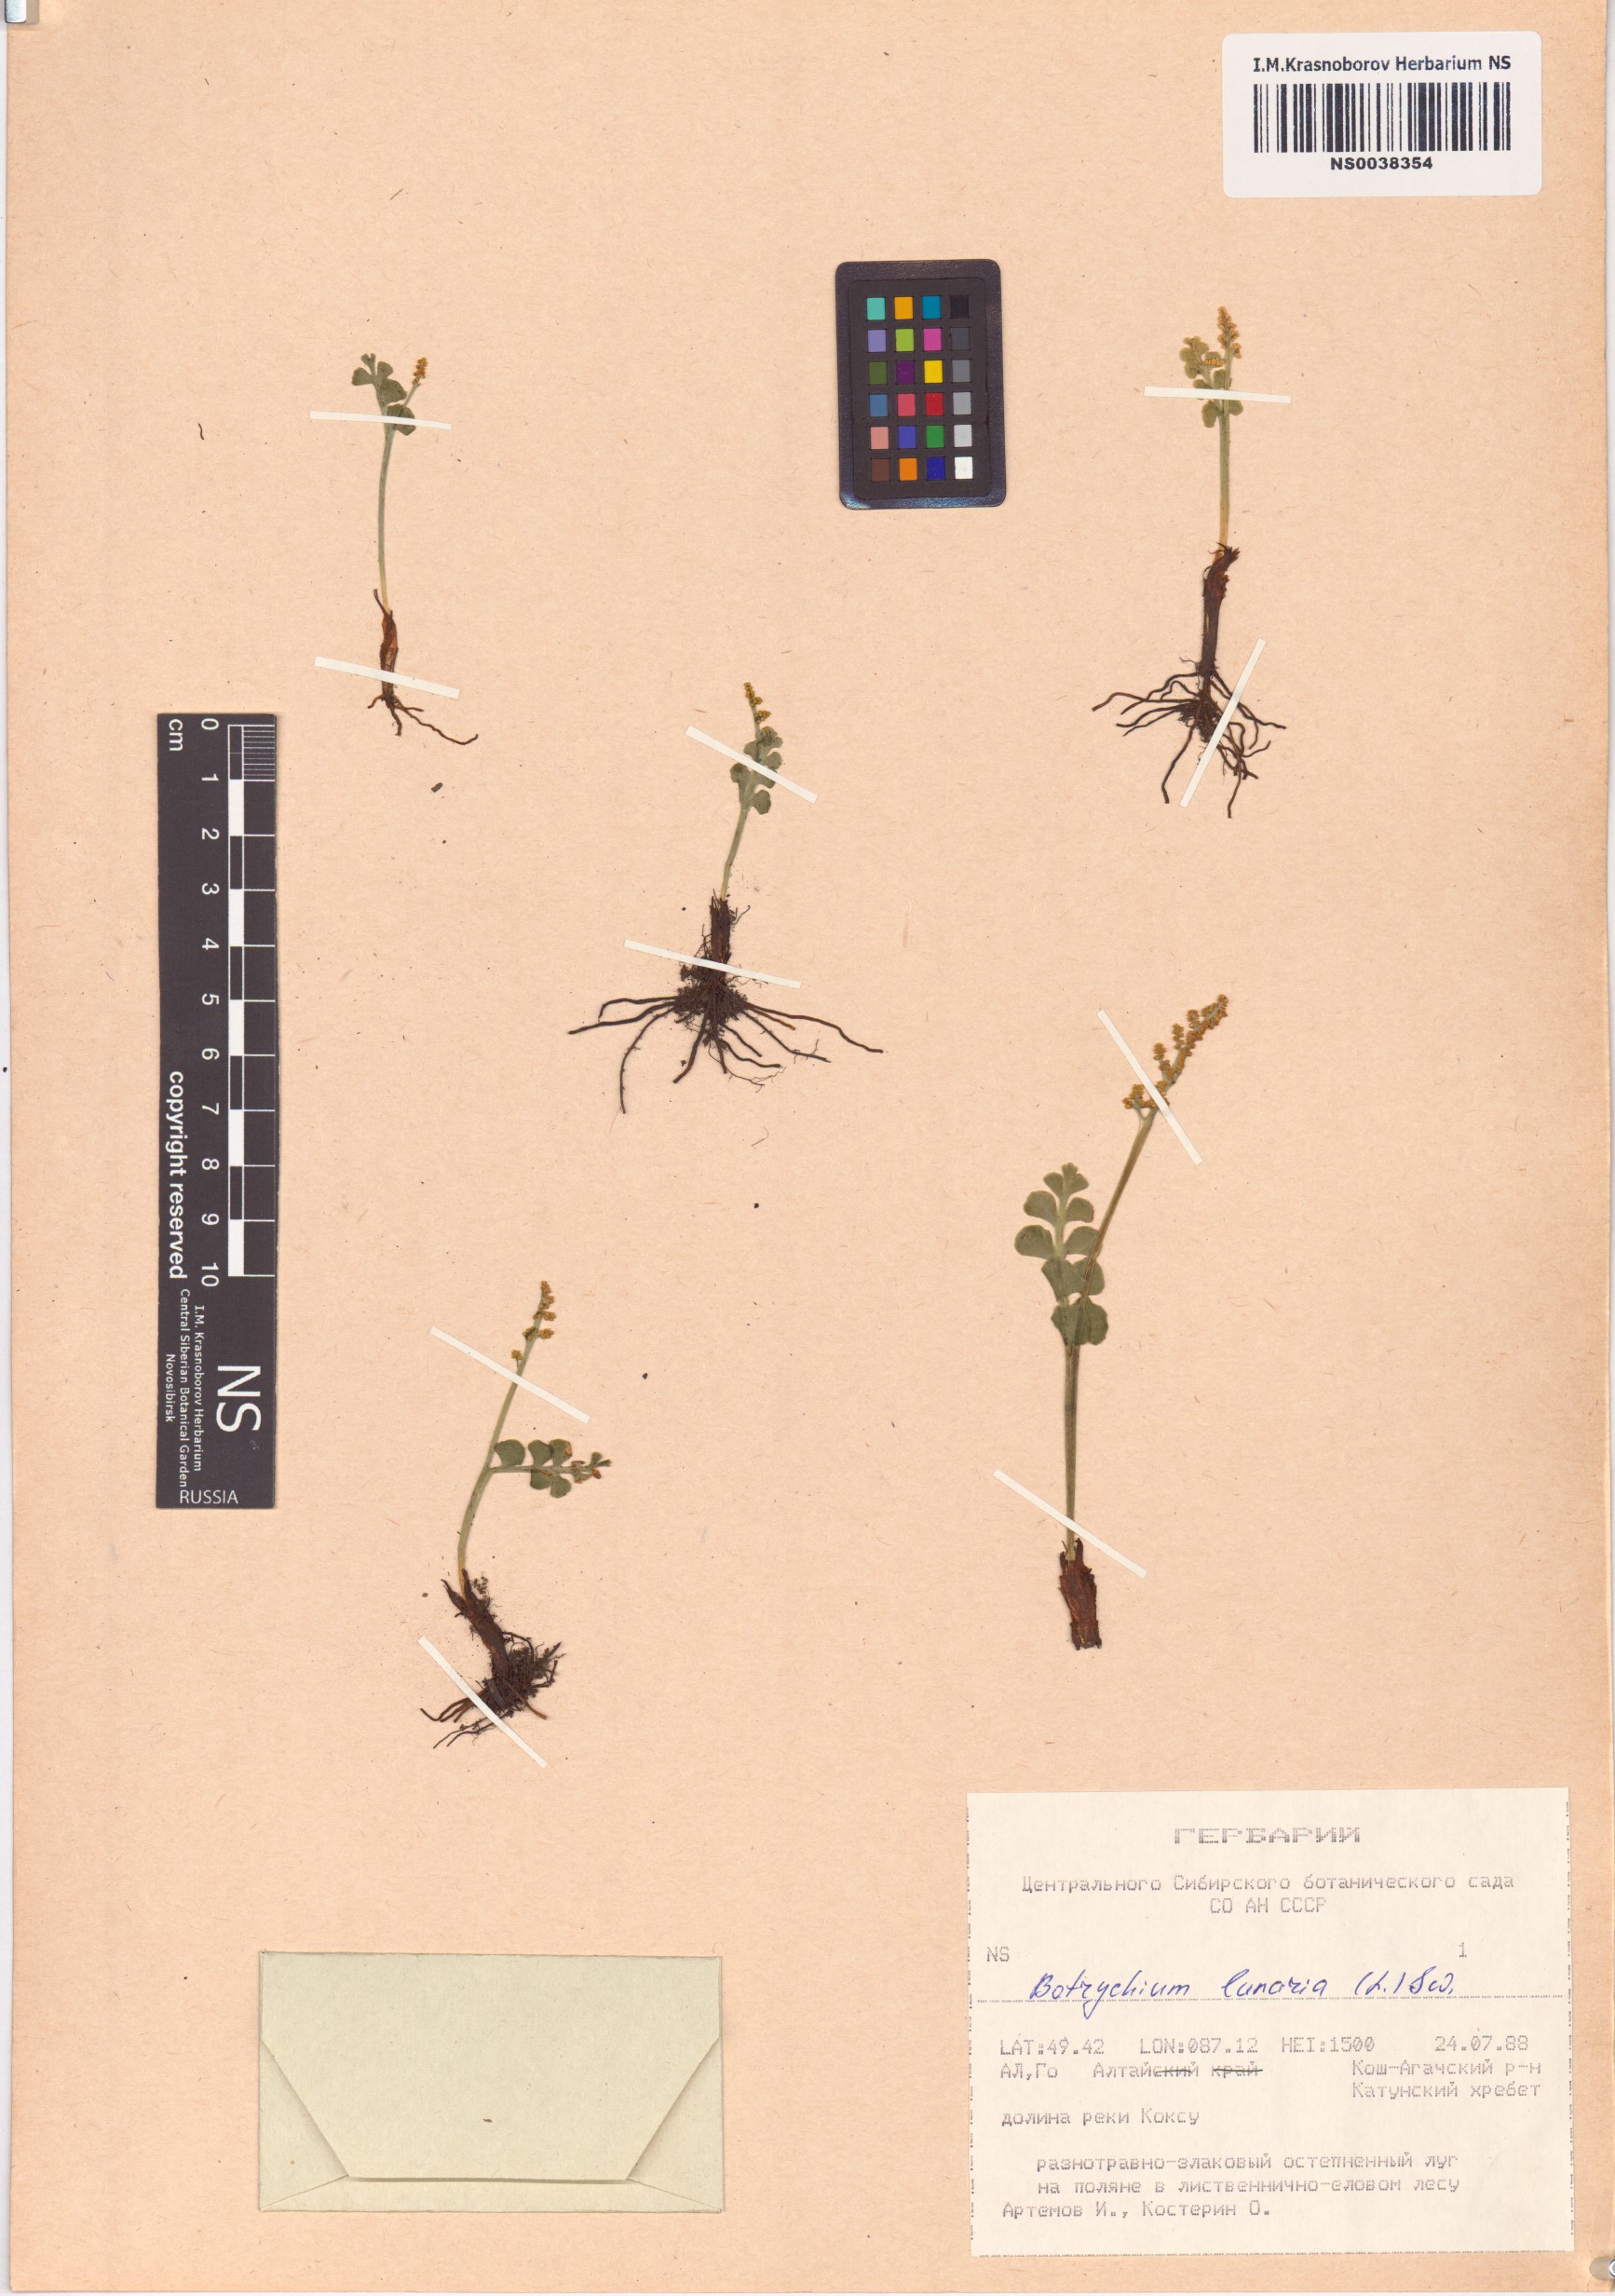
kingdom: Plantae
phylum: Tracheophyta
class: Polypodiopsida
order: Ophioglossales
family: Ophioglossaceae
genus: Botrychium
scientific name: Botrychium lunaria
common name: Moonwort
